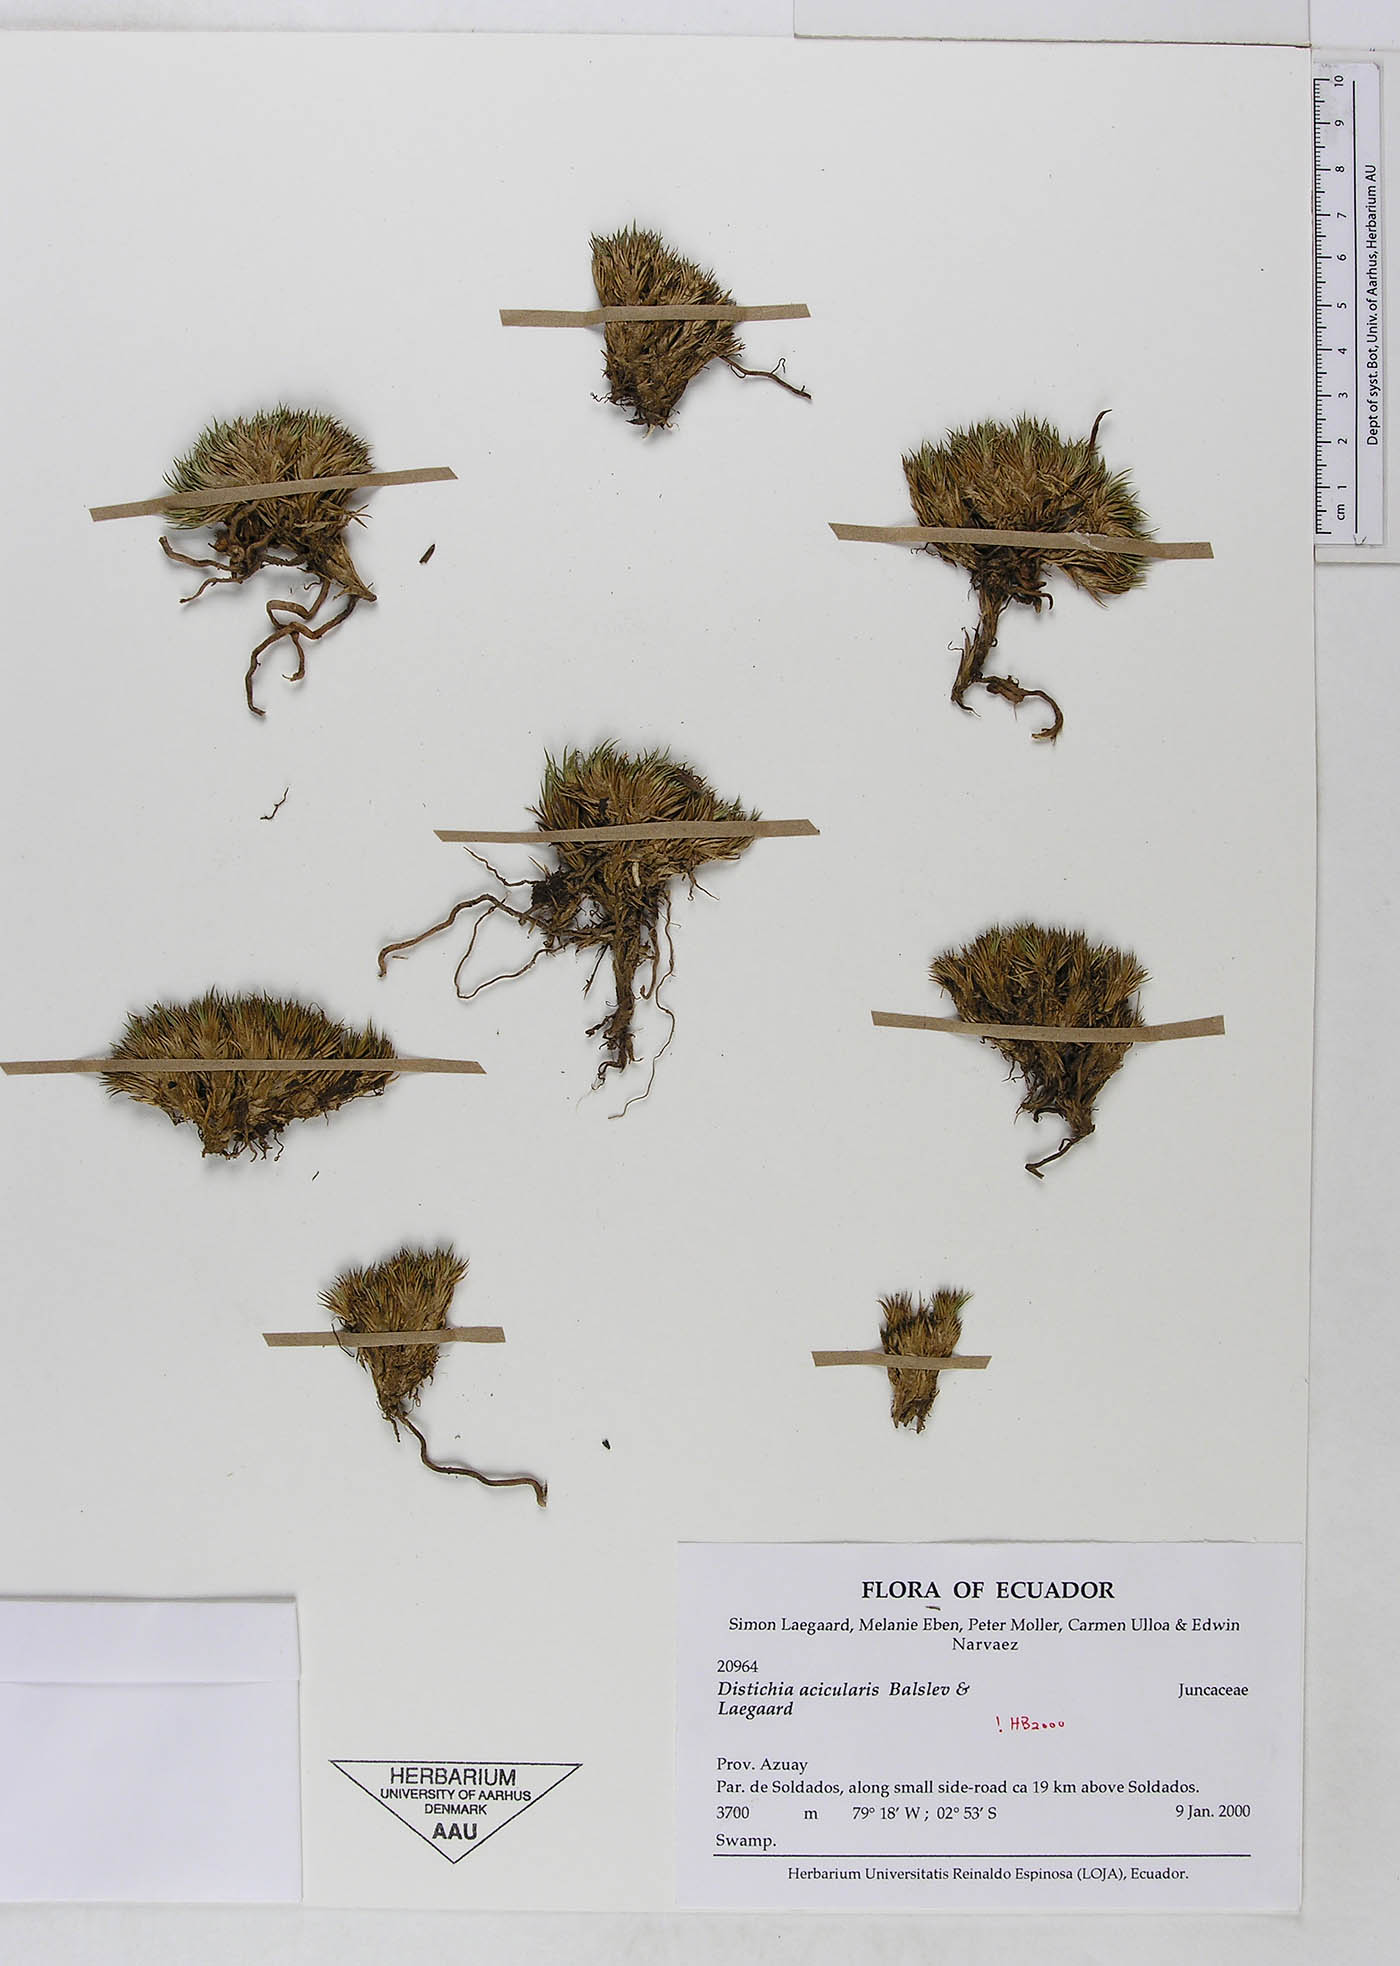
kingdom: Plantae
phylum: Tracheophyta
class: Liliopsida
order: Poales
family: Juncaceae
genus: Distichia
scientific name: Distichia acicularis
